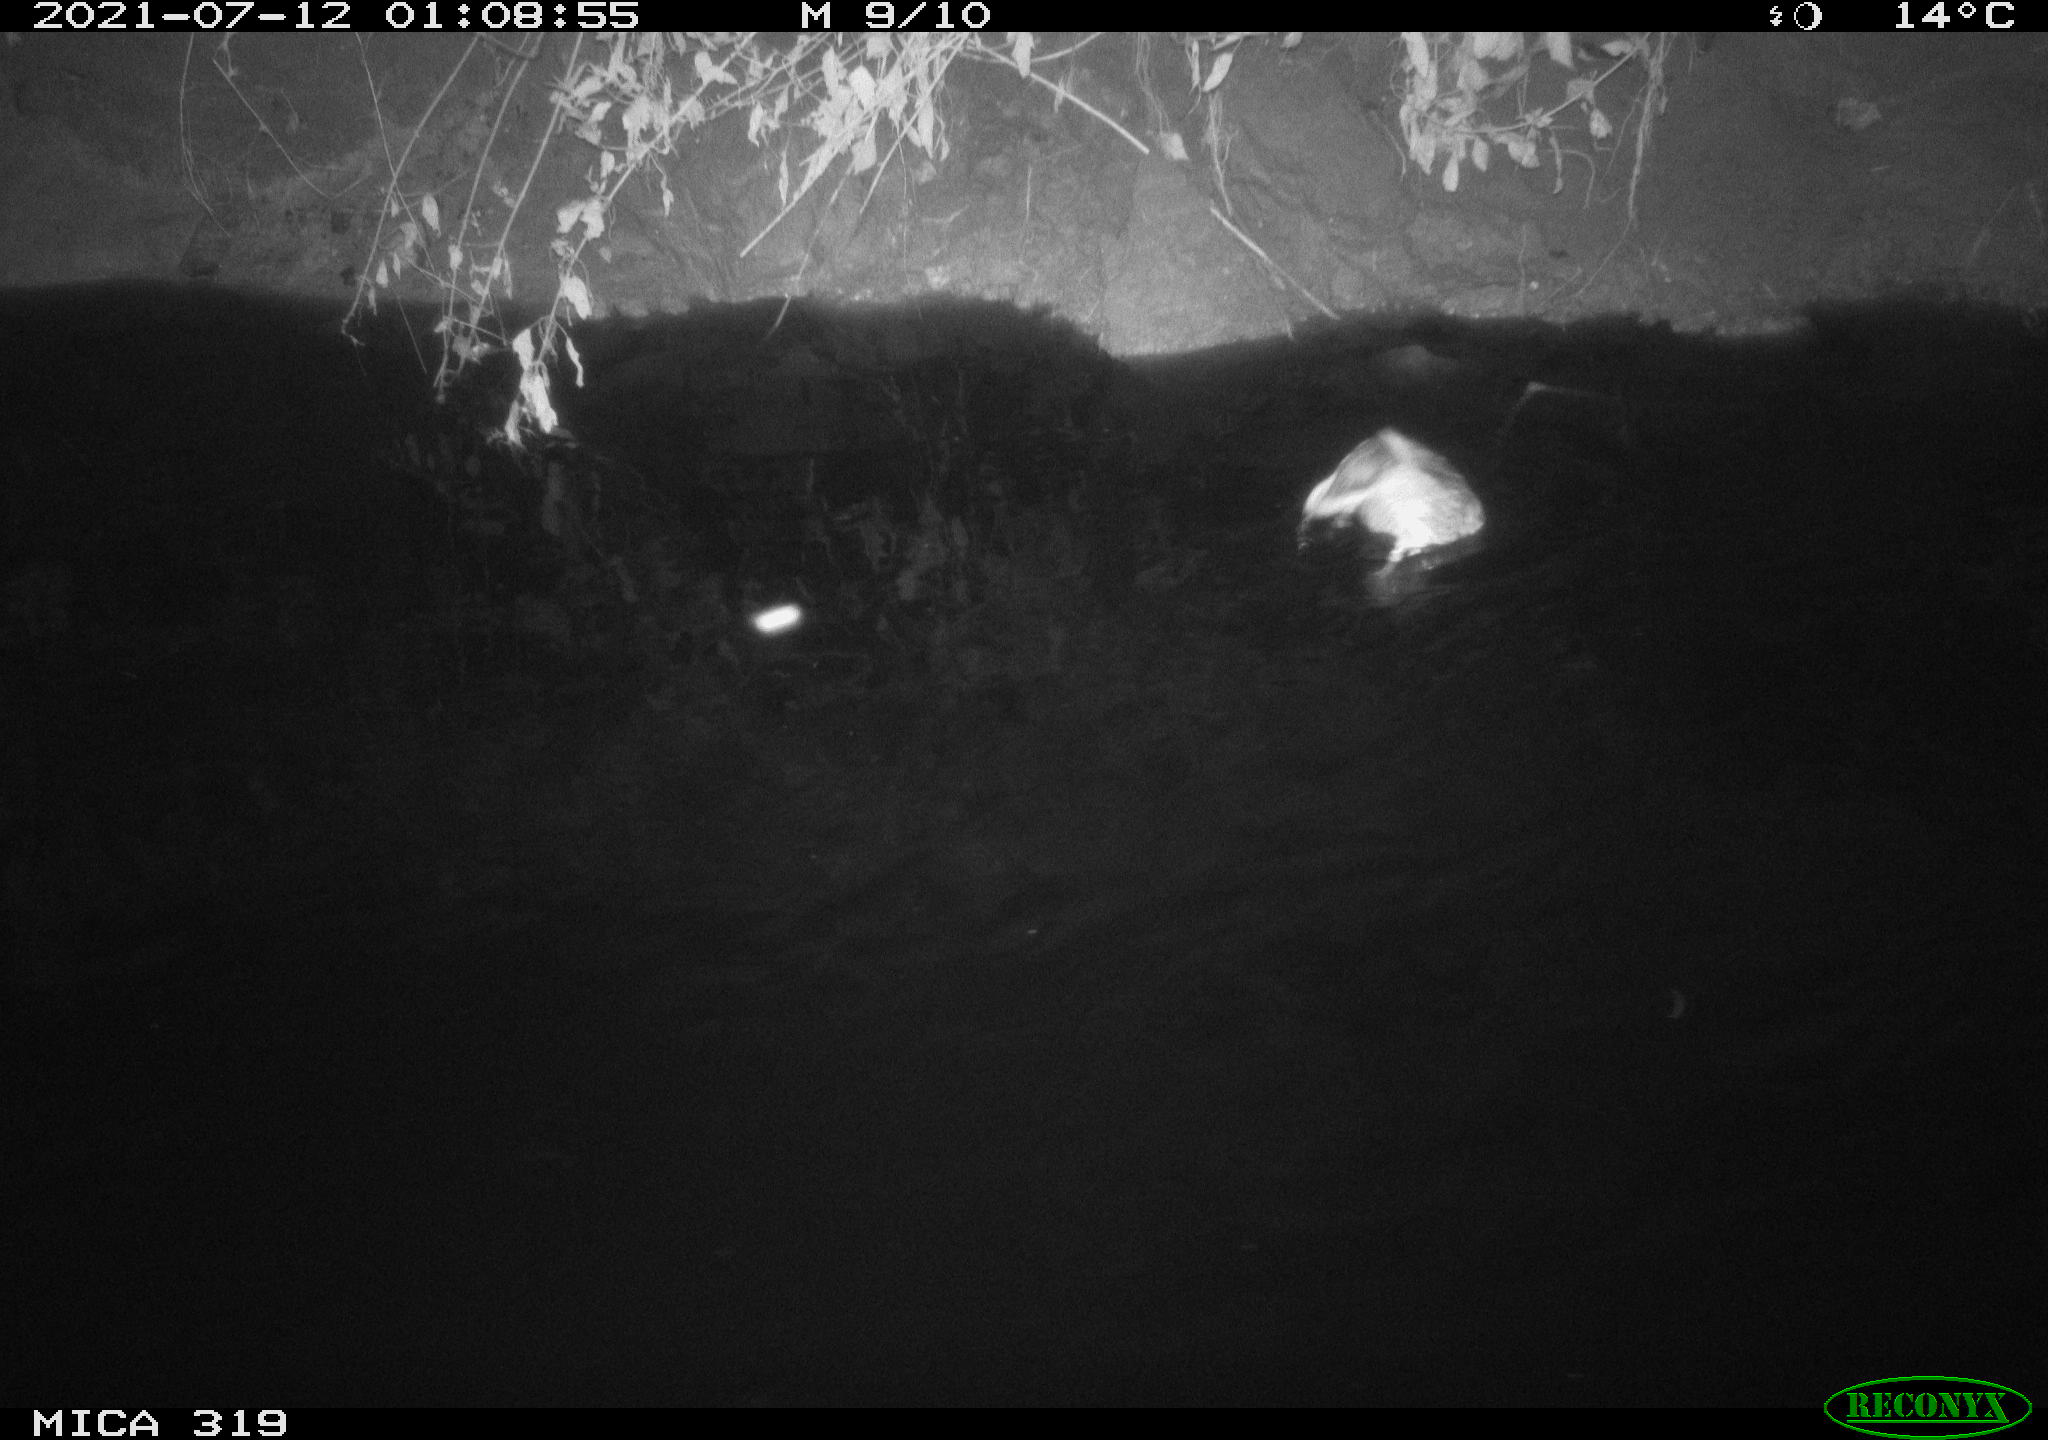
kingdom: Animalia
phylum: Chordata
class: Aves
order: Anseriformes
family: Anatidae
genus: Anas
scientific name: Anas platyrhynchos
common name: Mallard
